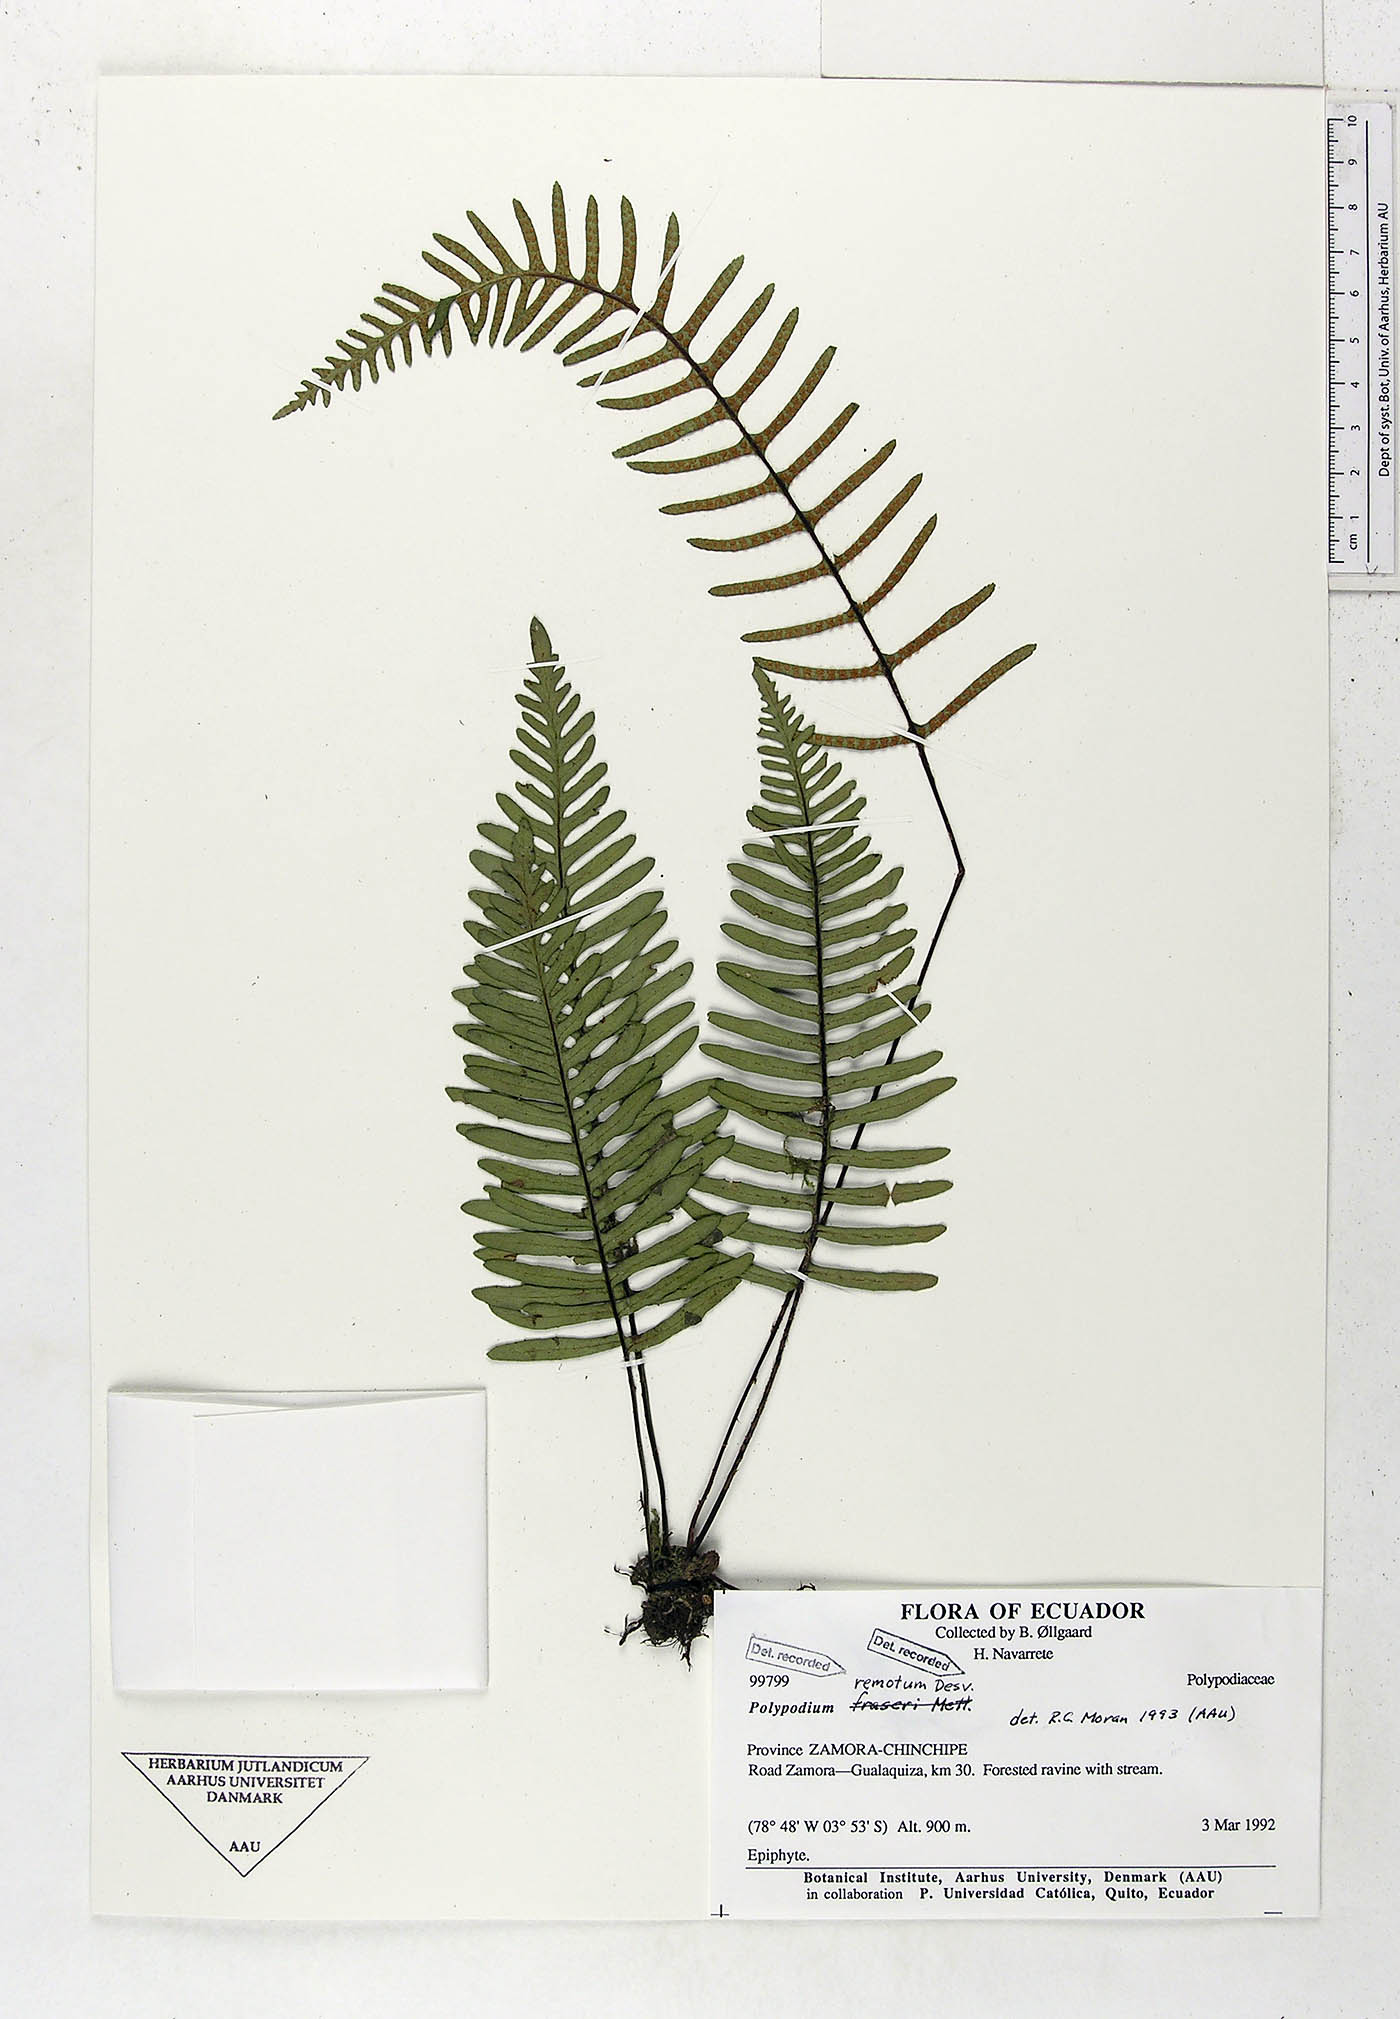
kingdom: Plantae
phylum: Tracheophyta
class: Polypodiopsida
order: Polypodiales
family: Polypodiaceae
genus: Pleopeltis
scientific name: Pleopeltis remota
